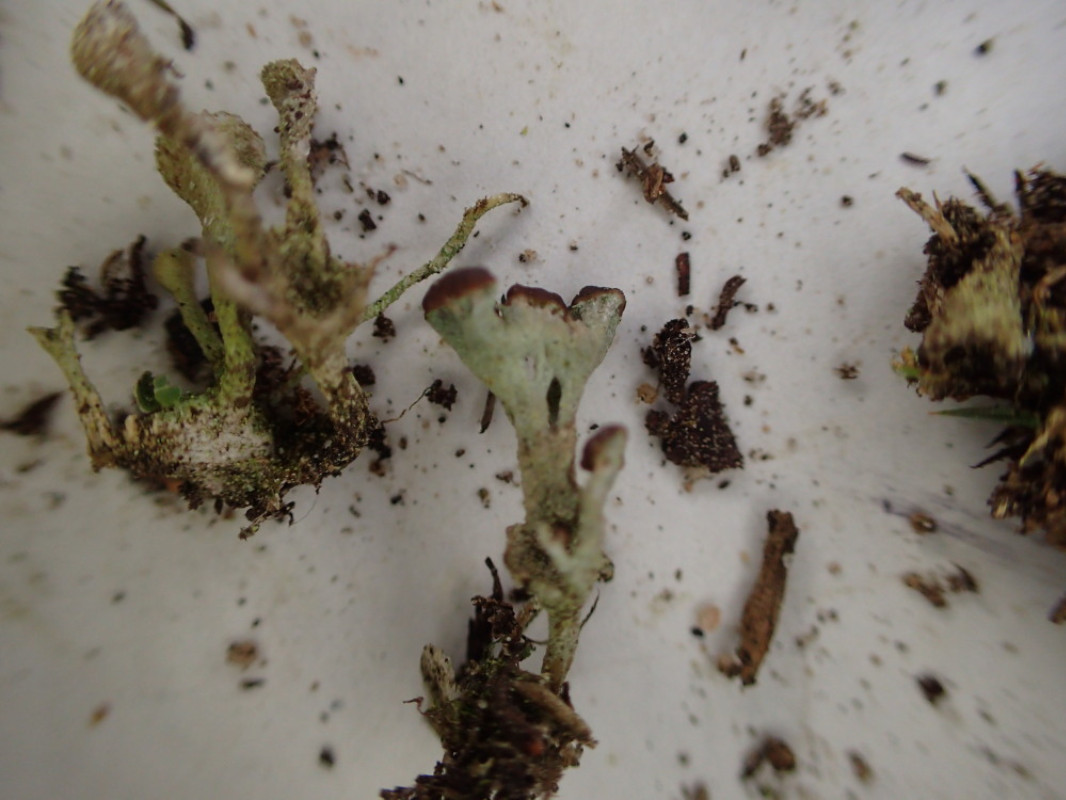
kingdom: Fungi
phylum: Ascomycota
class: Lecanoromycetes
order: Lecanorales
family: Cladoniaceae
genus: Cladonia
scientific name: Cladonia
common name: brungrøn bægerlav
